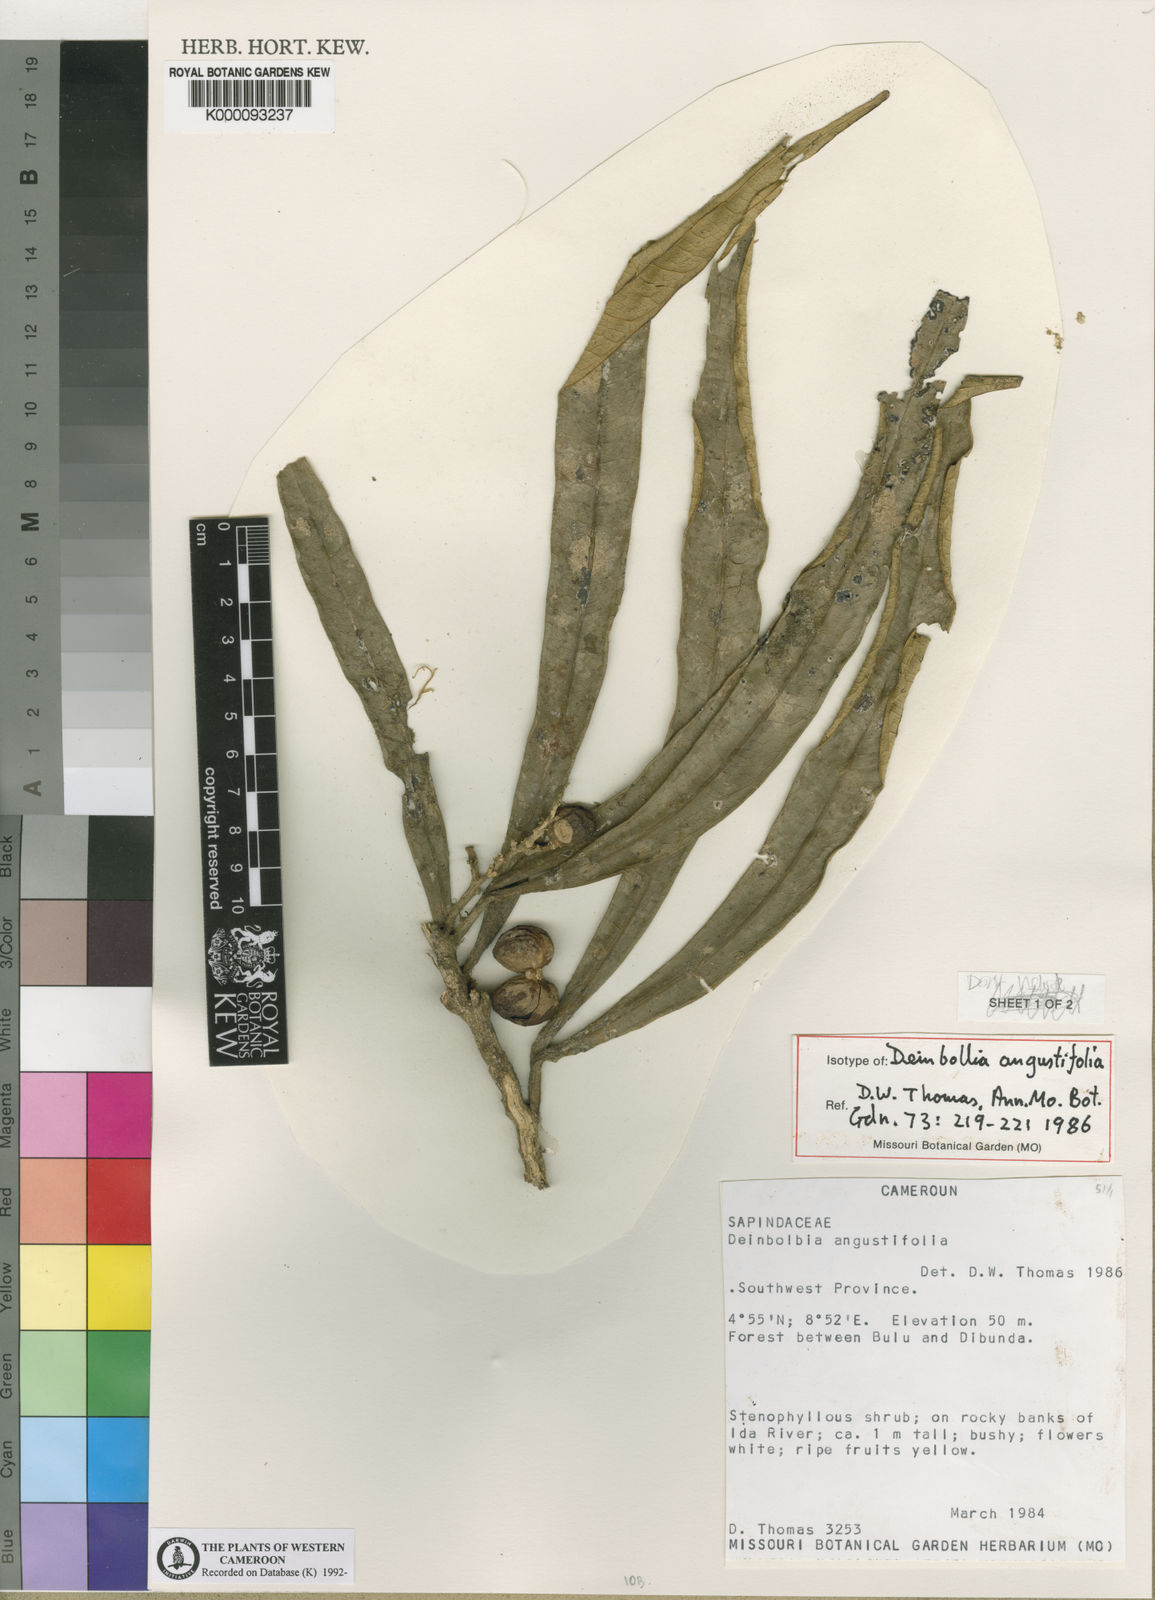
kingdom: Plantae
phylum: Tracheophyta
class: Magnoliopsida
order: Sapindales
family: Sapindaceae
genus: Deinbollia
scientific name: Deinbollia angustifolia
